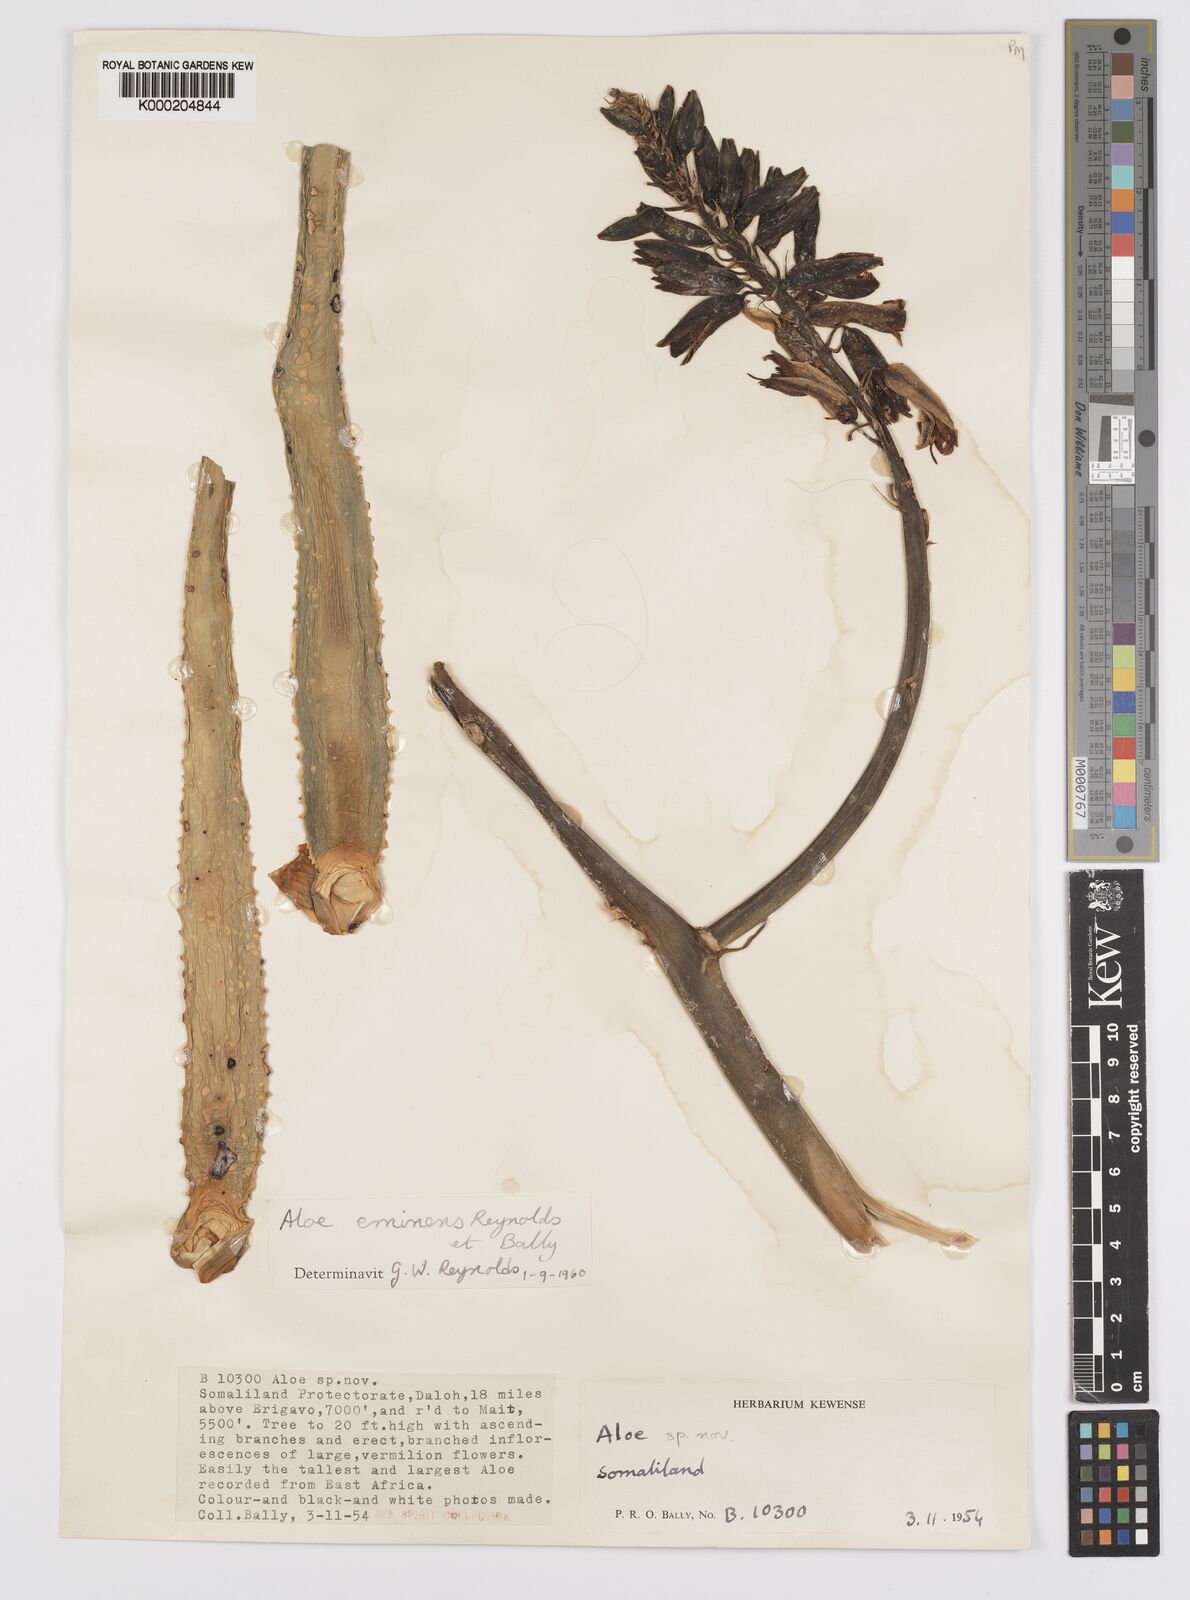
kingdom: Plantae
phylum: Tracheophyta
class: Liliopsida
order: Asparagales
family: Asphodelaceae
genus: Aloidendron
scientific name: Aloidendron eminens
